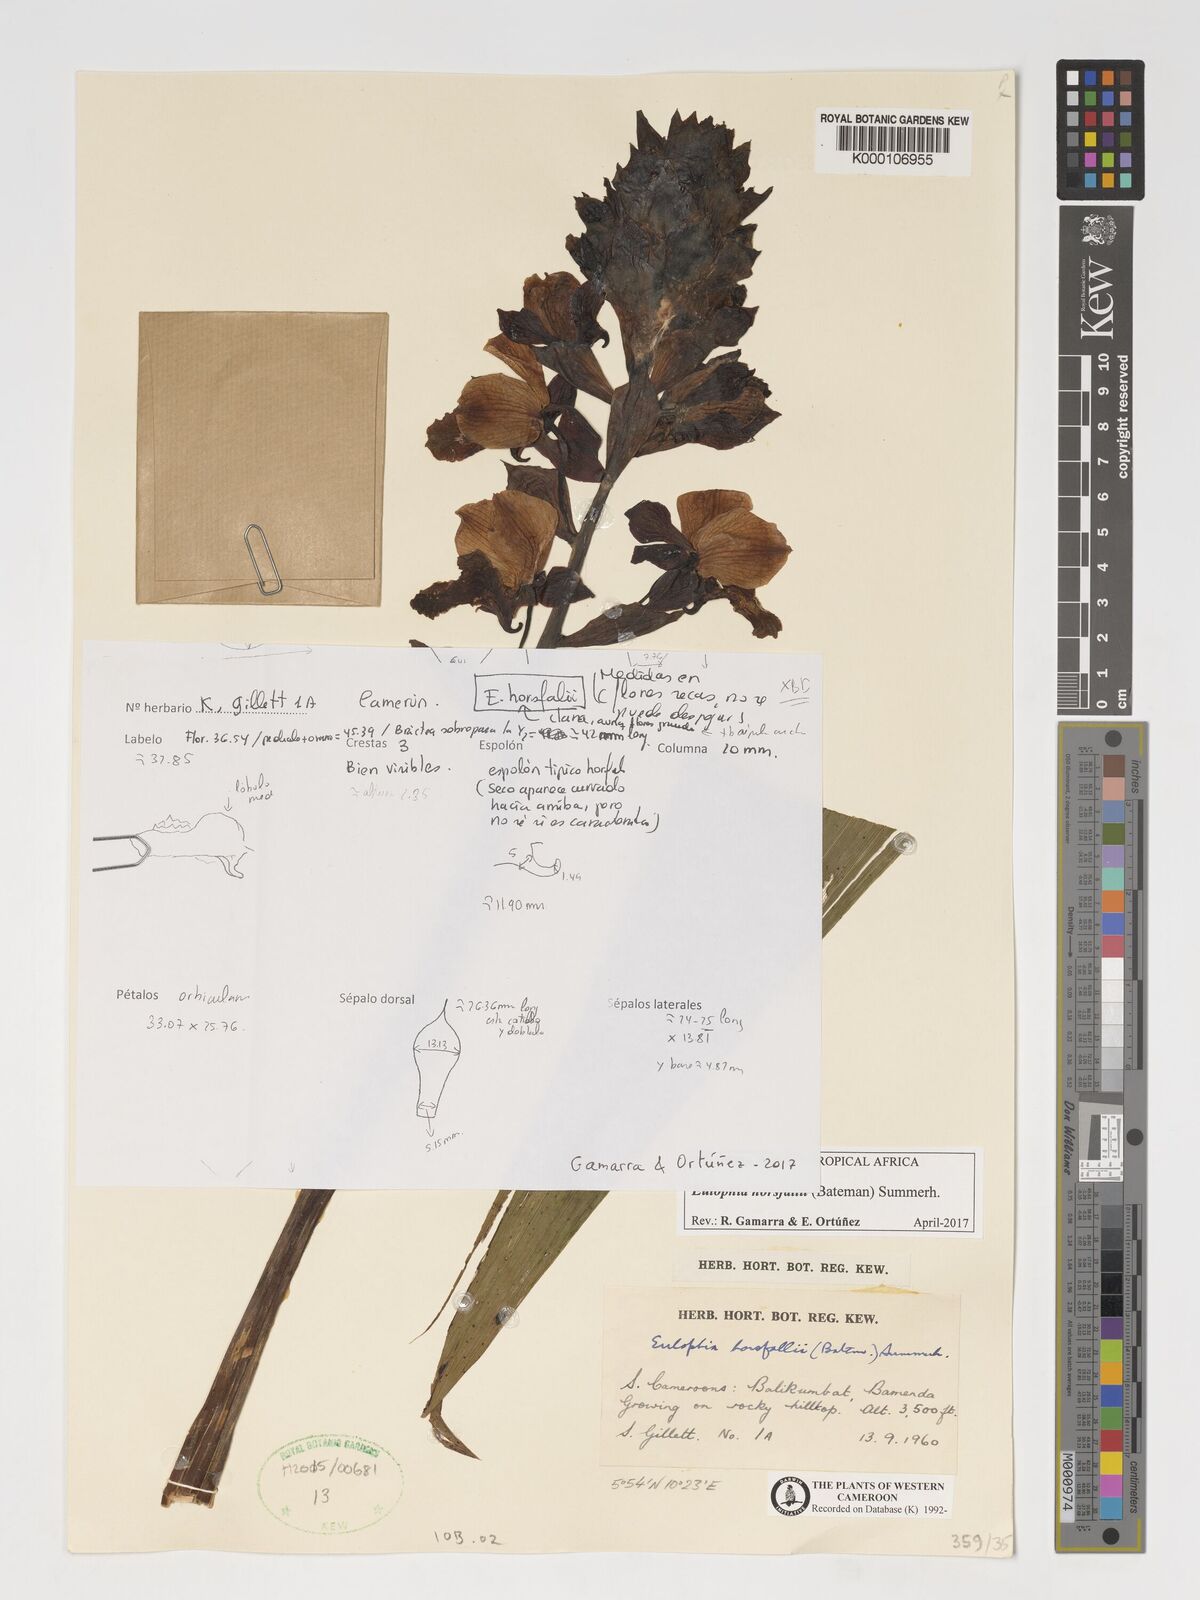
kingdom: Plantae
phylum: Tracheophyta
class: Liliopsida
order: Asparagales
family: Orchidaceae
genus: Eulophia
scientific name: Eulophia horsfallii
